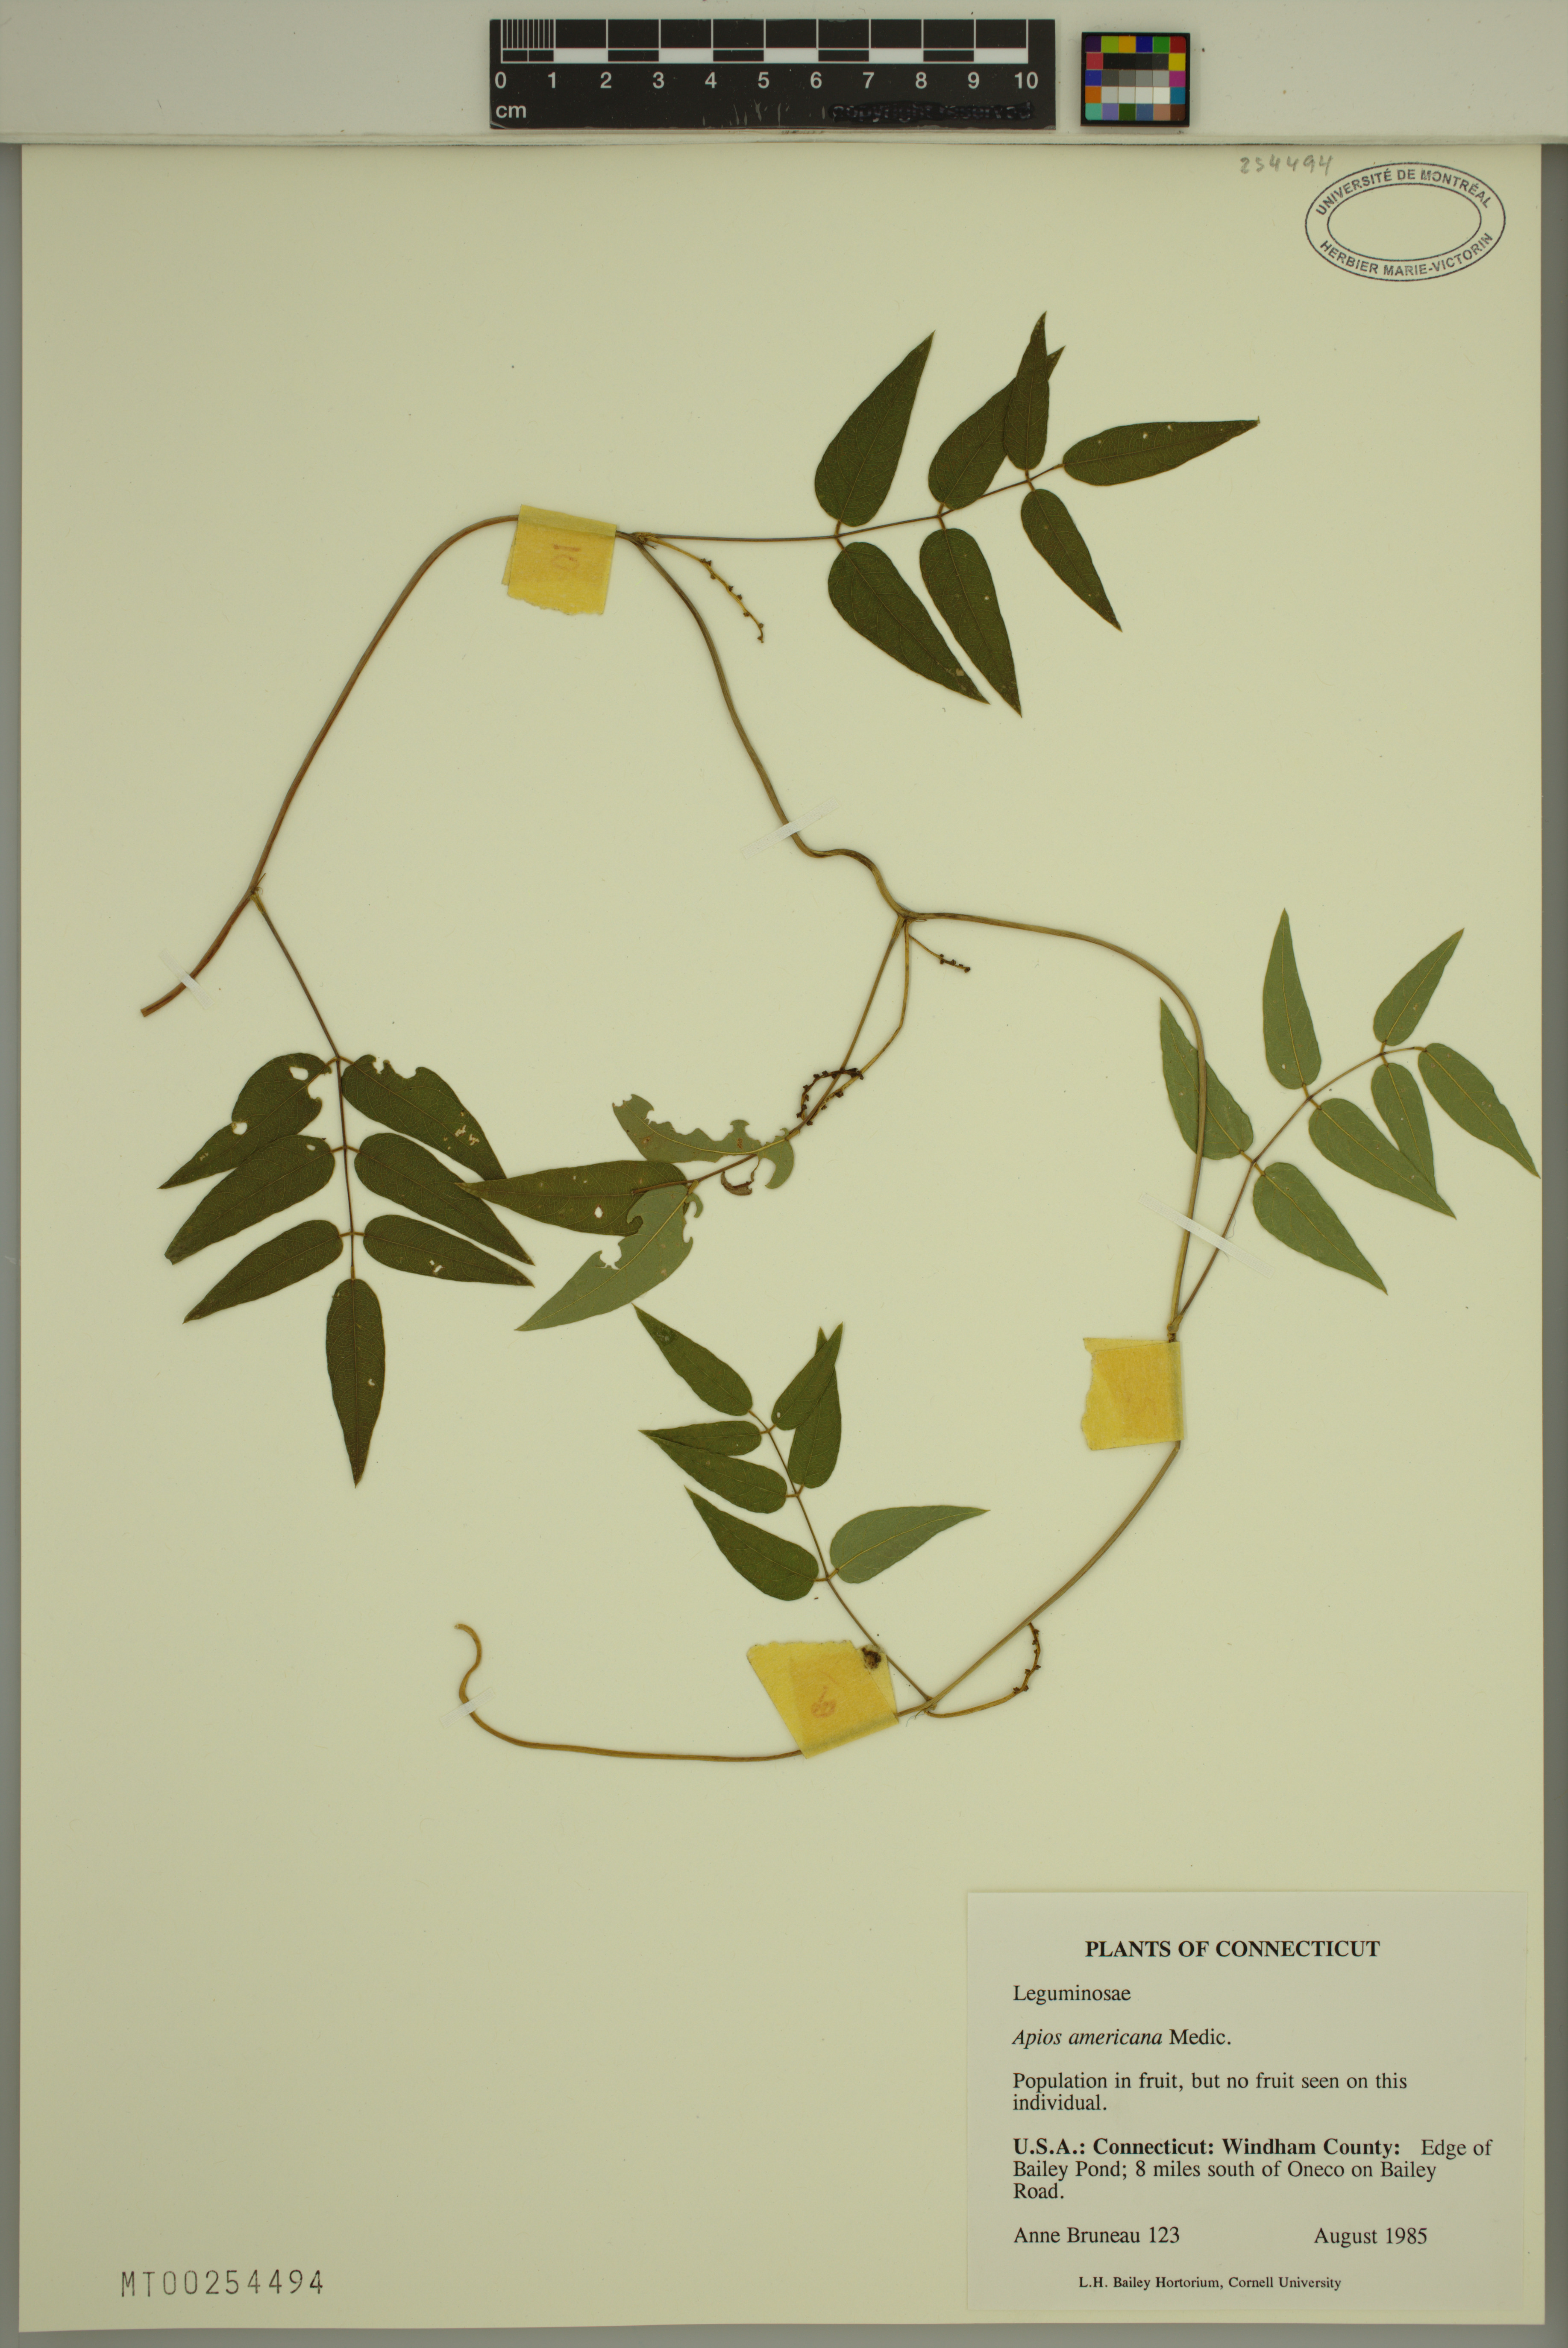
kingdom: Plantae
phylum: Tracheophyta
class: Magnoliopsida
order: Fabales
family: Fabaceae
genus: Apios
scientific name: Apios americana
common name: American potato-bean
